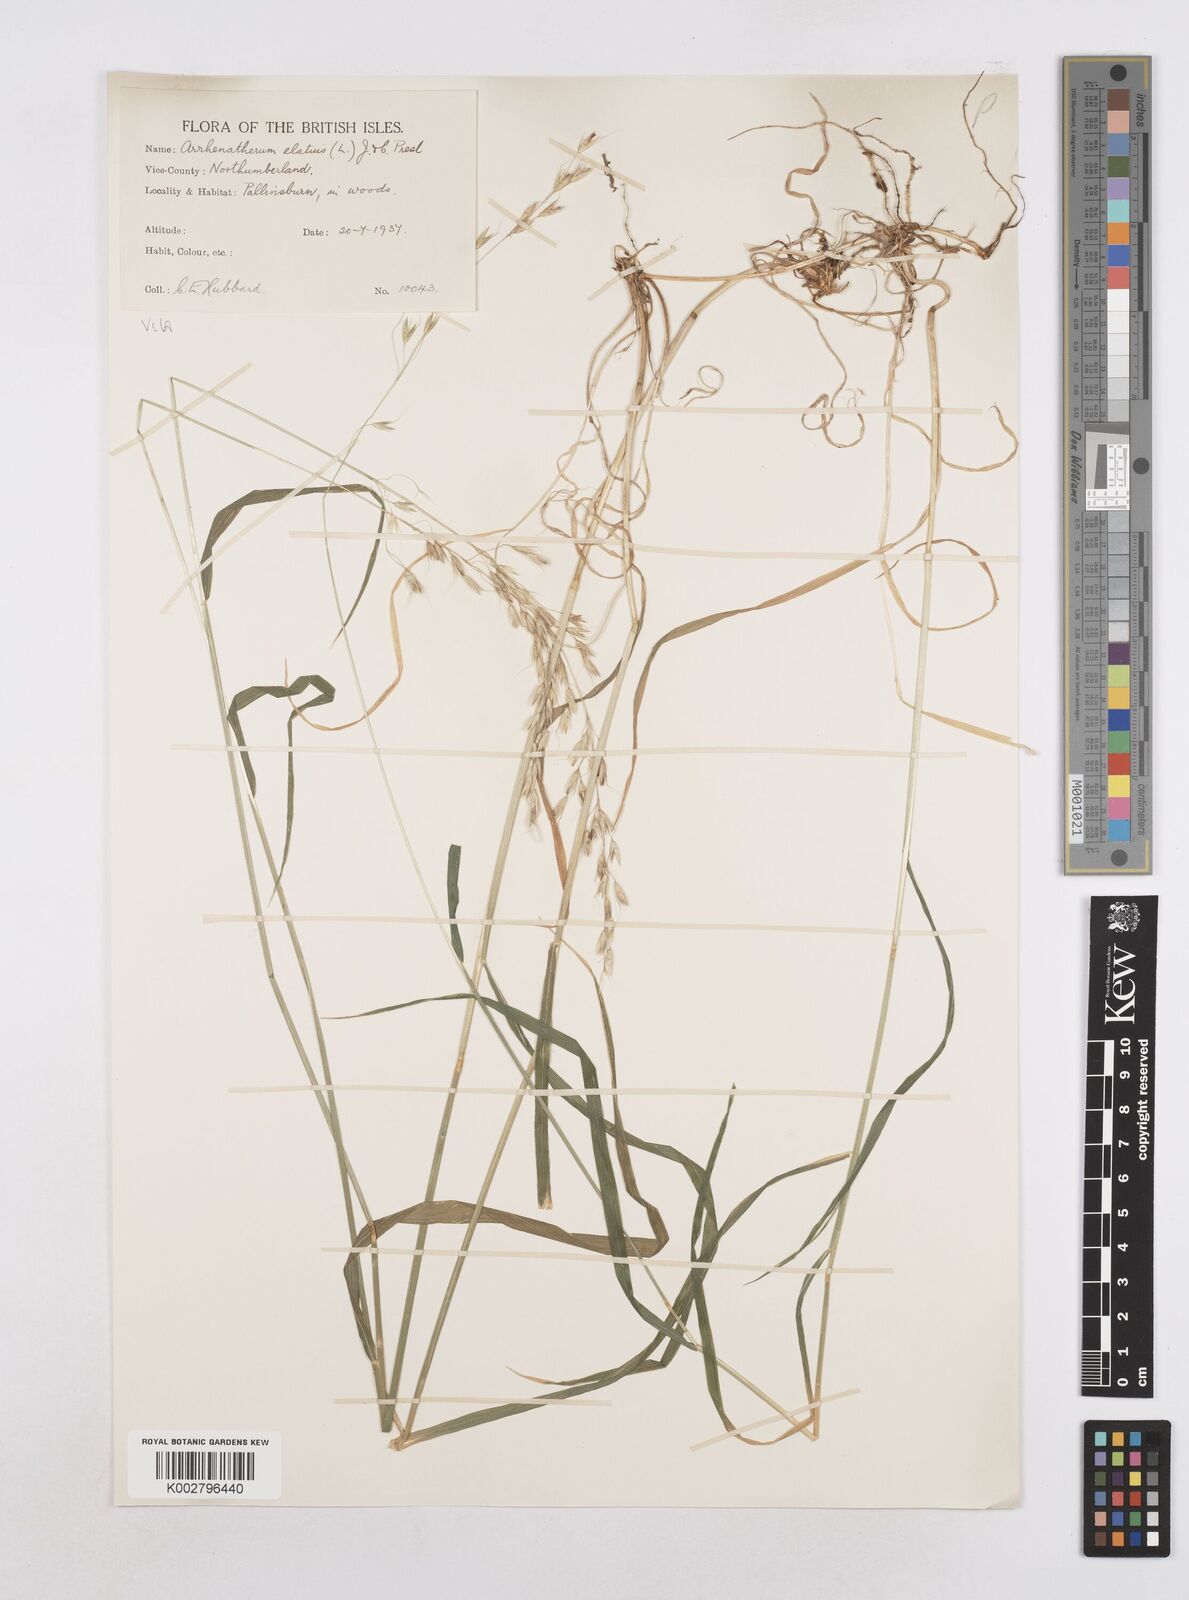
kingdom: Plantae
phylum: Tracheophyta
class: Liliopsida
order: Poales
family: Poaceae
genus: Arrhenatherum
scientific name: Arrhenatherum elatius
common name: Tall oatgrass
